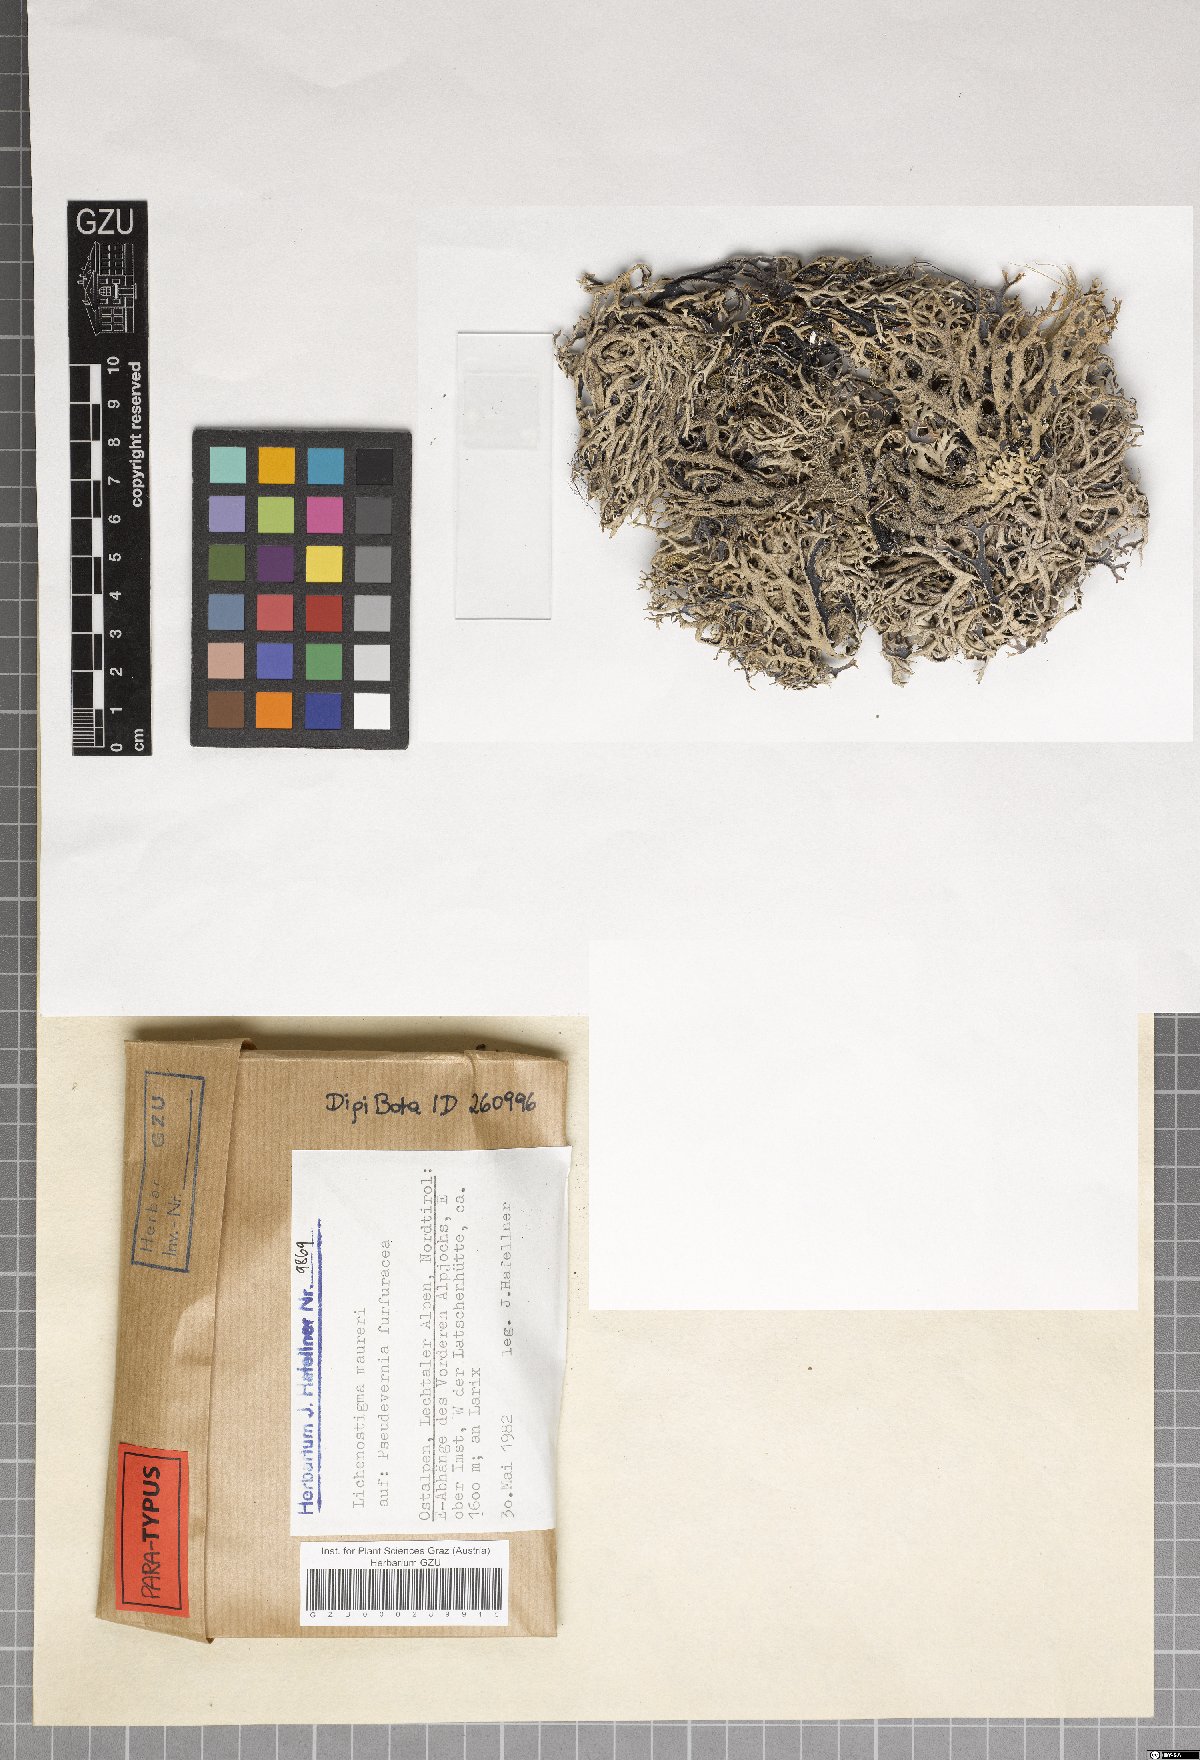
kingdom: Fungi
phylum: Ascomycota
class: Arthoniomycetes
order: Lichenostigmatales
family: Phaeococcomycetaceae
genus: Lichenostigma
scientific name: Lichenostigma maureri
